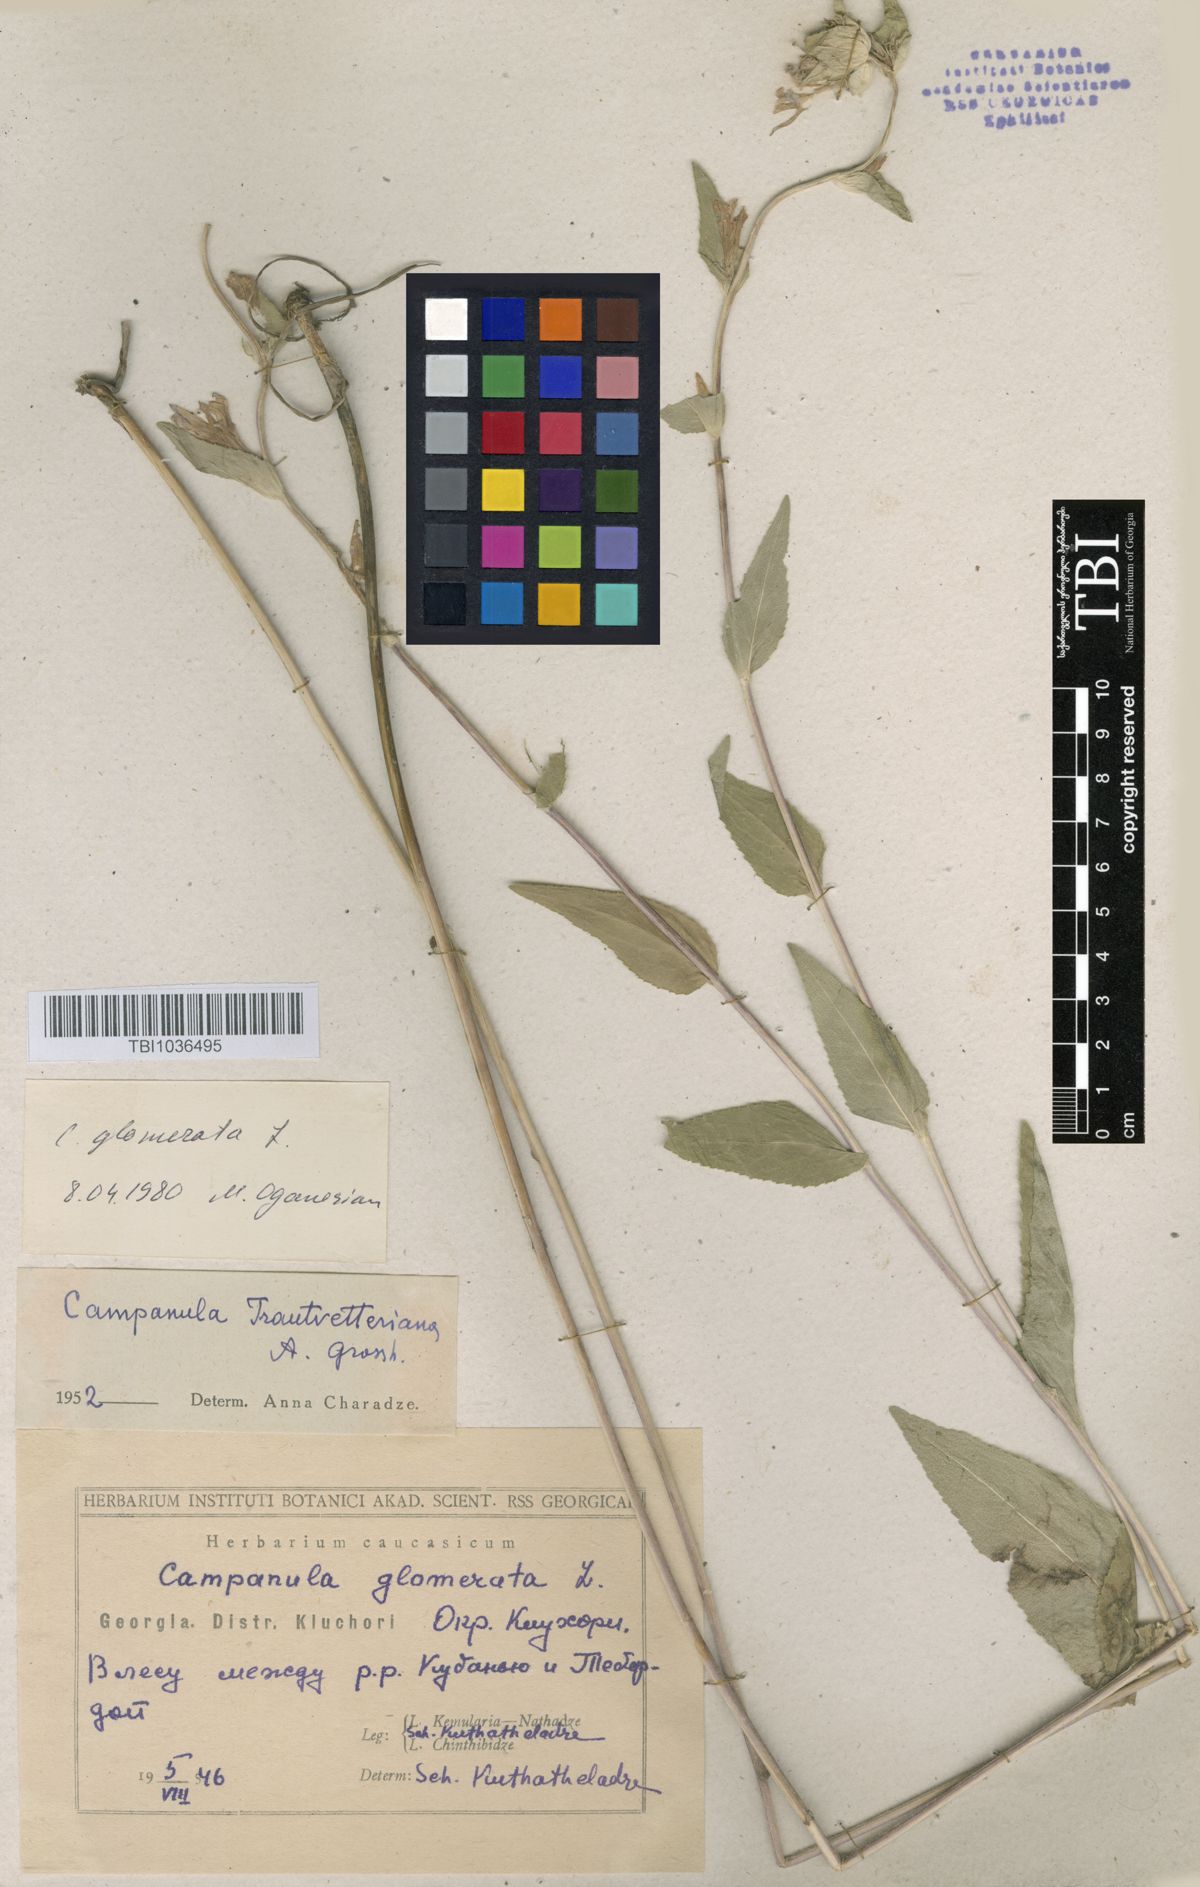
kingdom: Plantae
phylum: Tracheophyta
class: Magnoliopsida
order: Asterales
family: Campanulaceae
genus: Campanula
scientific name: Campanula glomerata
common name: Clustered bellflower
